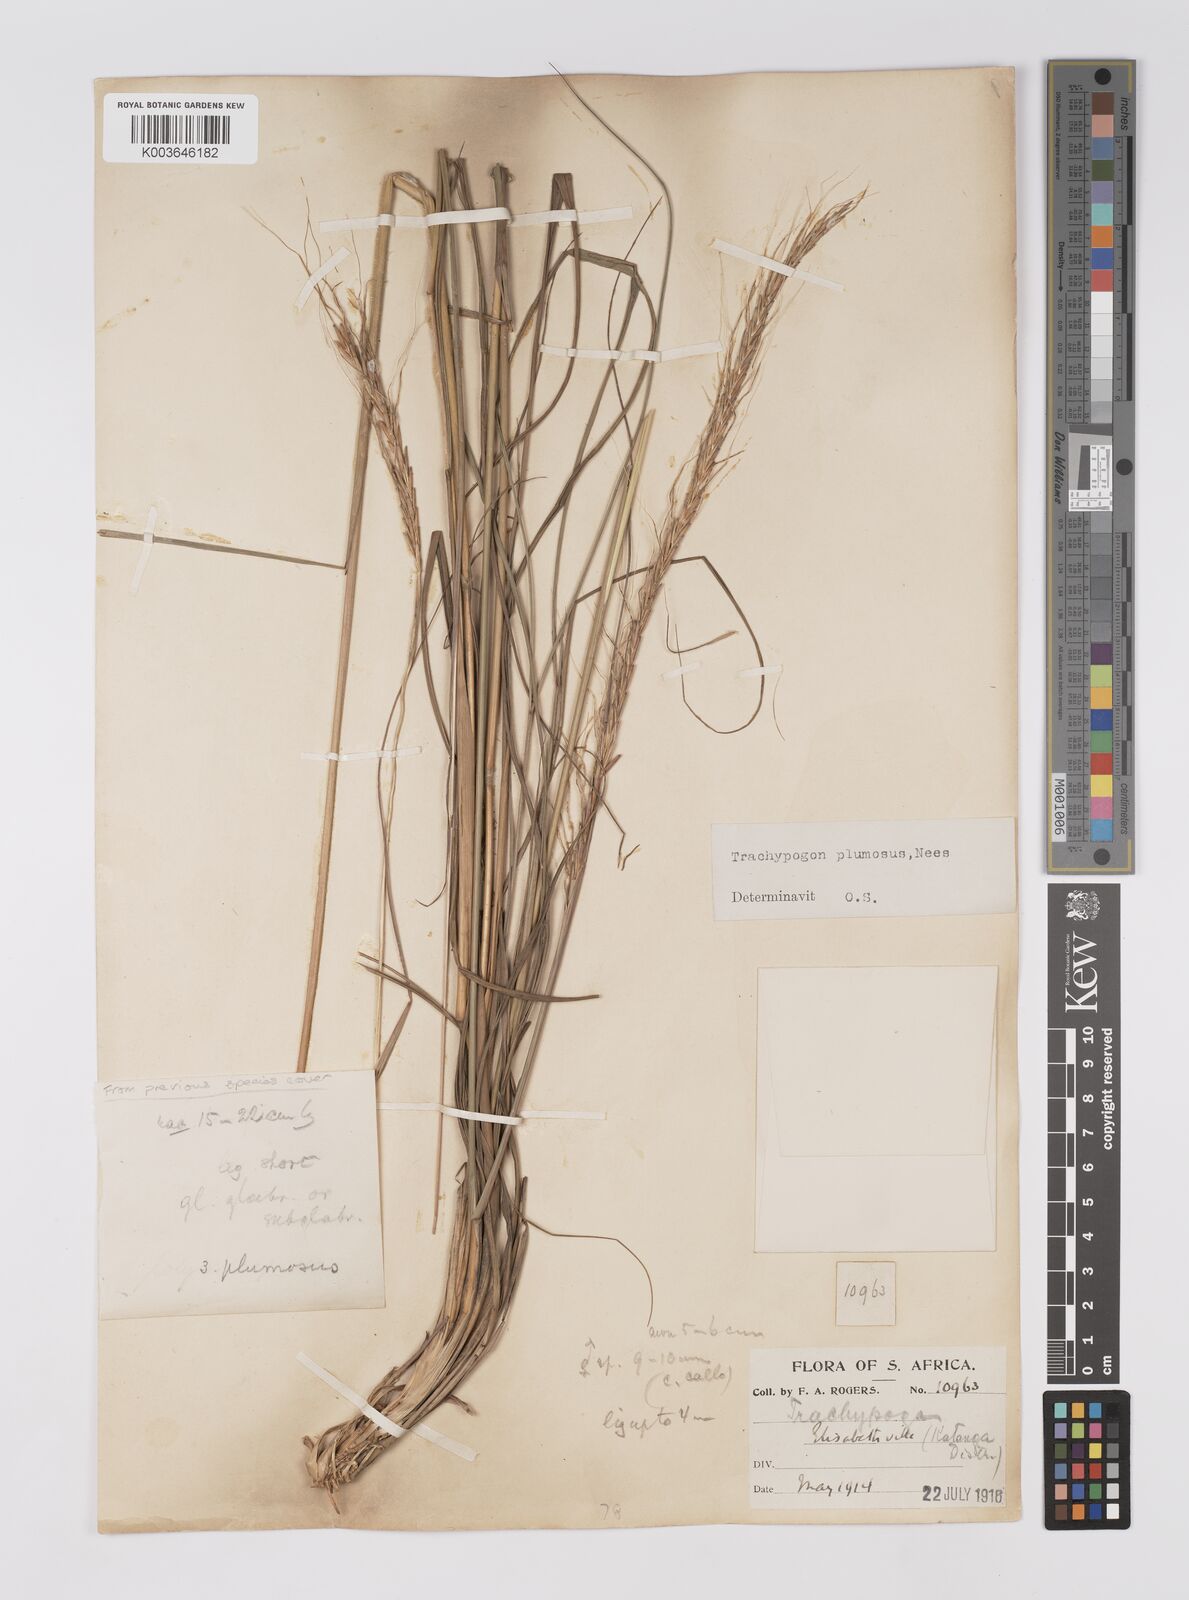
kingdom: Plantae
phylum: Tracheophyta
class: Liliopsida
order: Poales
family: Poaceae
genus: Trachypogon
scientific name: Trachypogon spicatus
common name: Crinkle-awn
